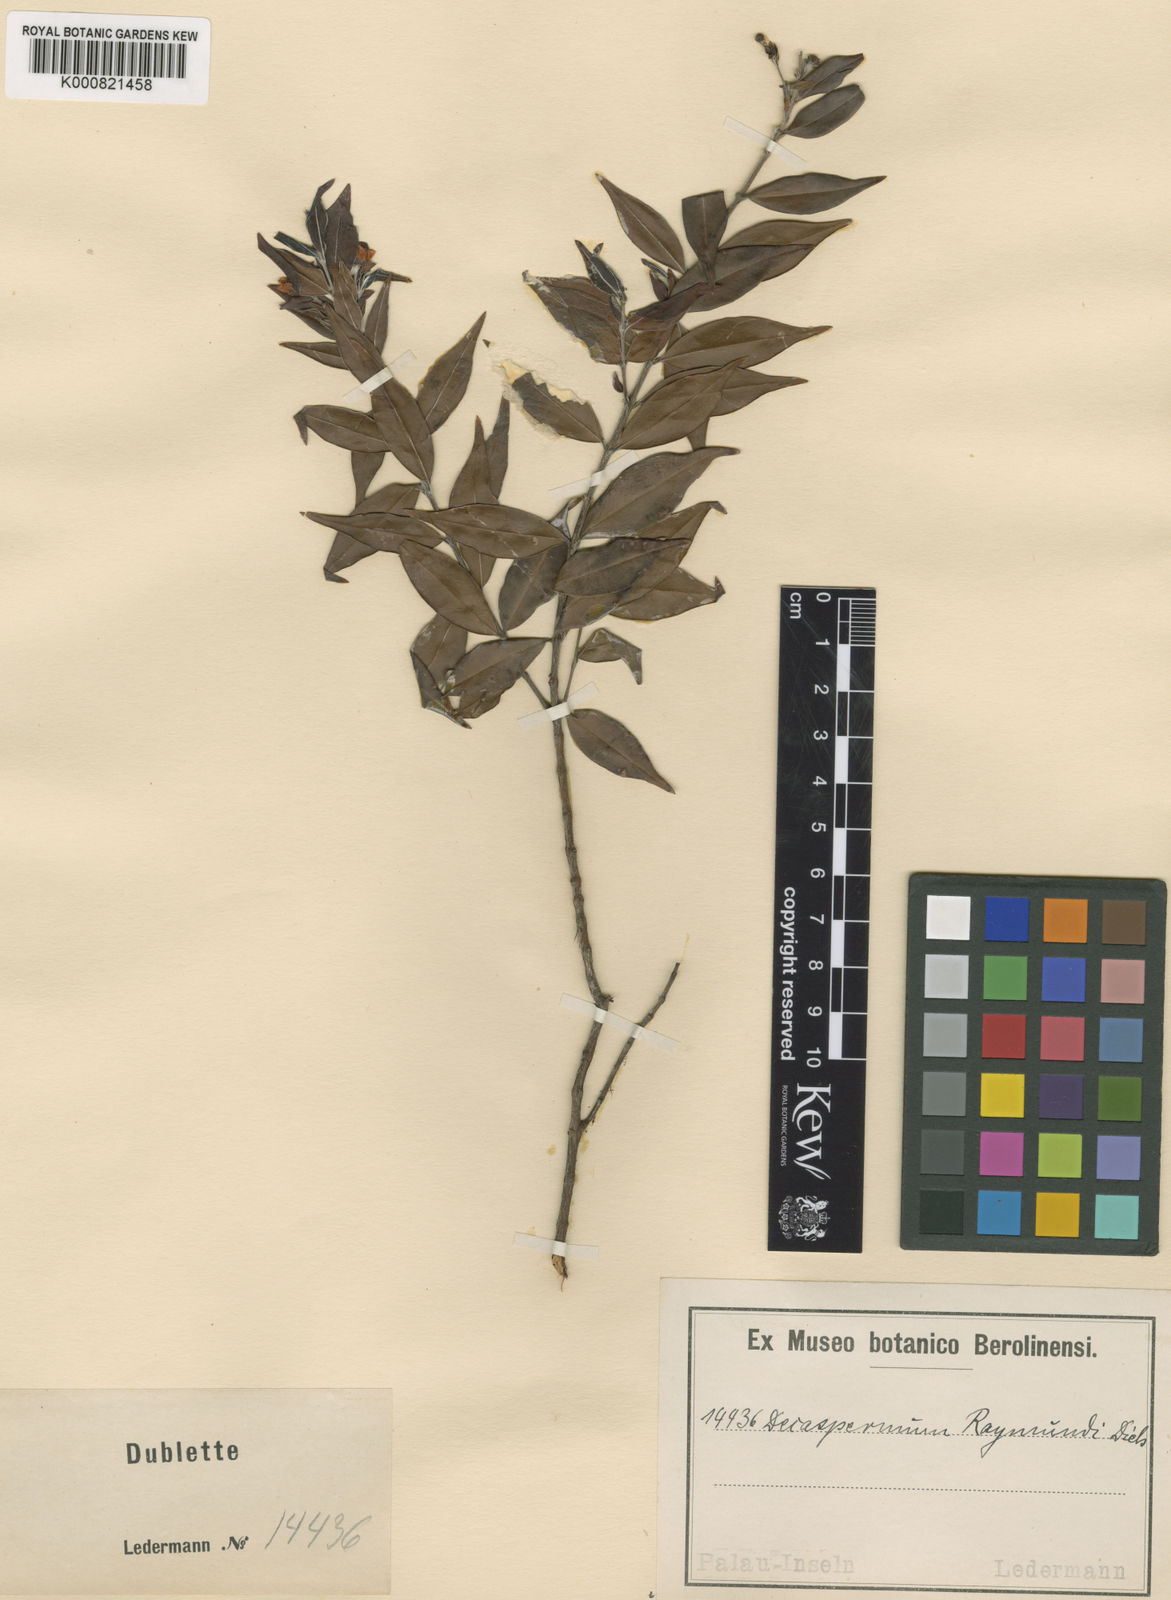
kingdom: Plantae
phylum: Tracheophyta
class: Magnoliopsida
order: Myrtales
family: Myrtaceae
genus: Decaspermum
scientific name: Decaspermum raymundi
